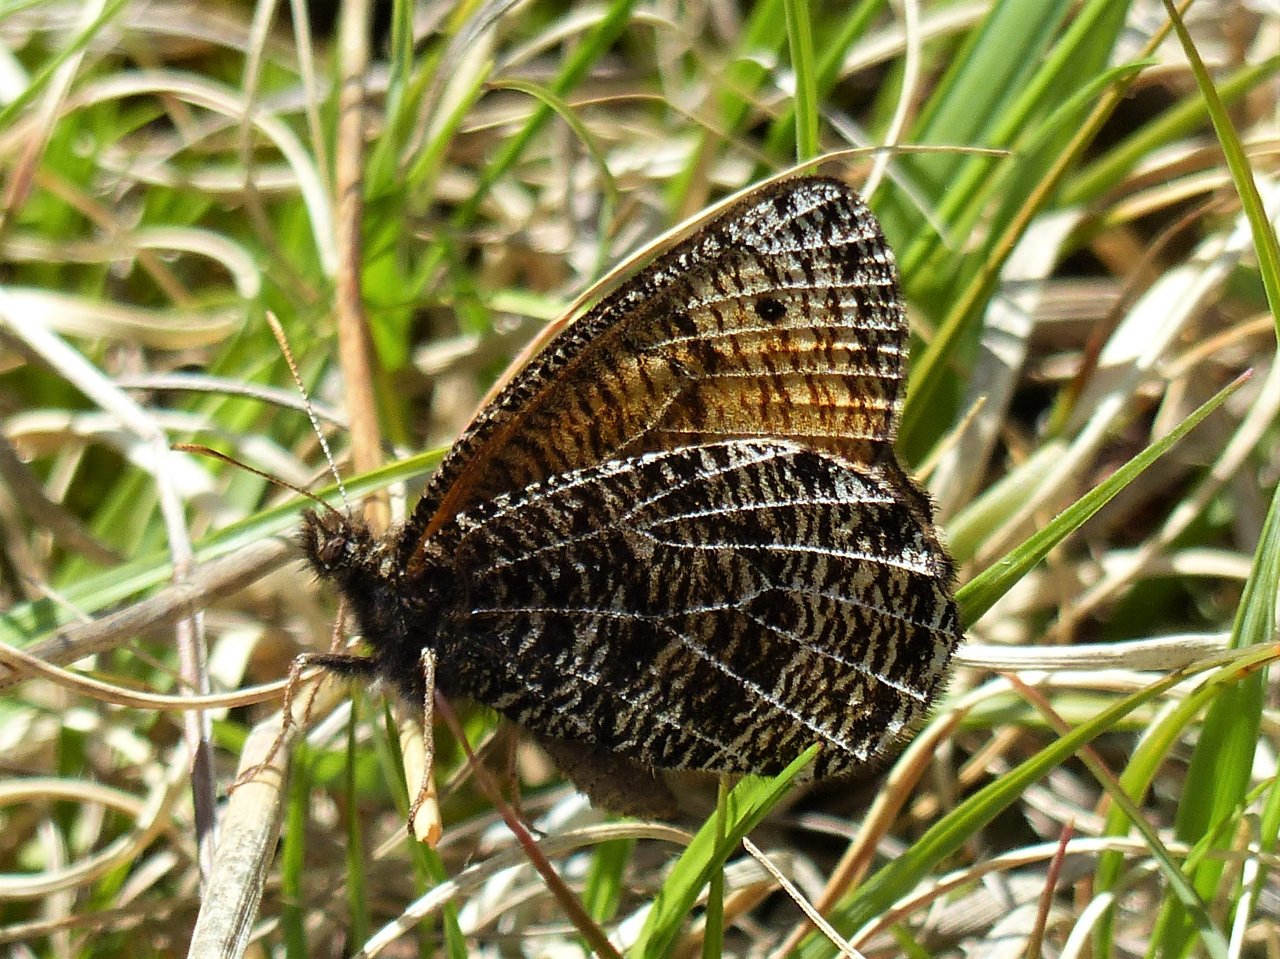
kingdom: Animalia
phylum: Arthropoda
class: Insecta
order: Lepidoptera
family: Nymphalidae
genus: Oeneis
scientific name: Oeneis chryxus
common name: Chryxus Arctic
